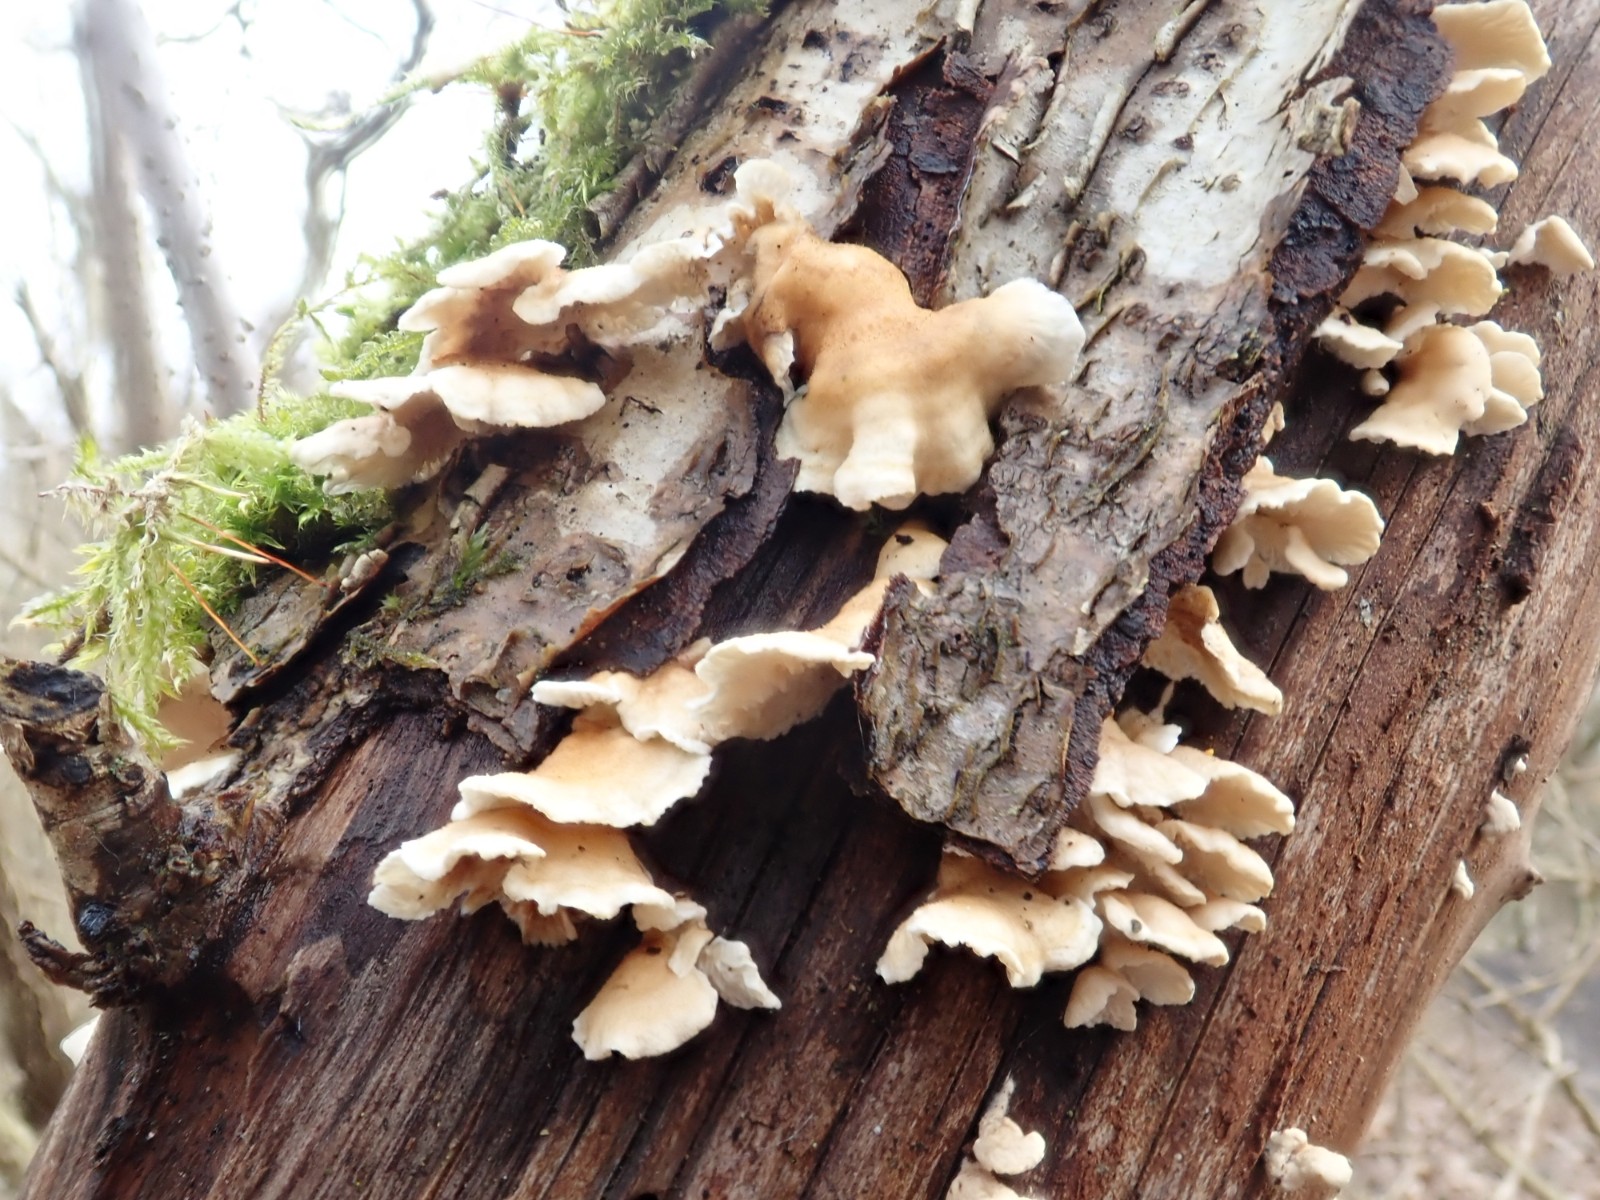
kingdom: Fungi
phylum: Basidiomycota
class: Agaricomycetes
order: Amylocorticiales
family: Amylocorticiaceae
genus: Plicaturopsis
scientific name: Plicaturopsis crispa
